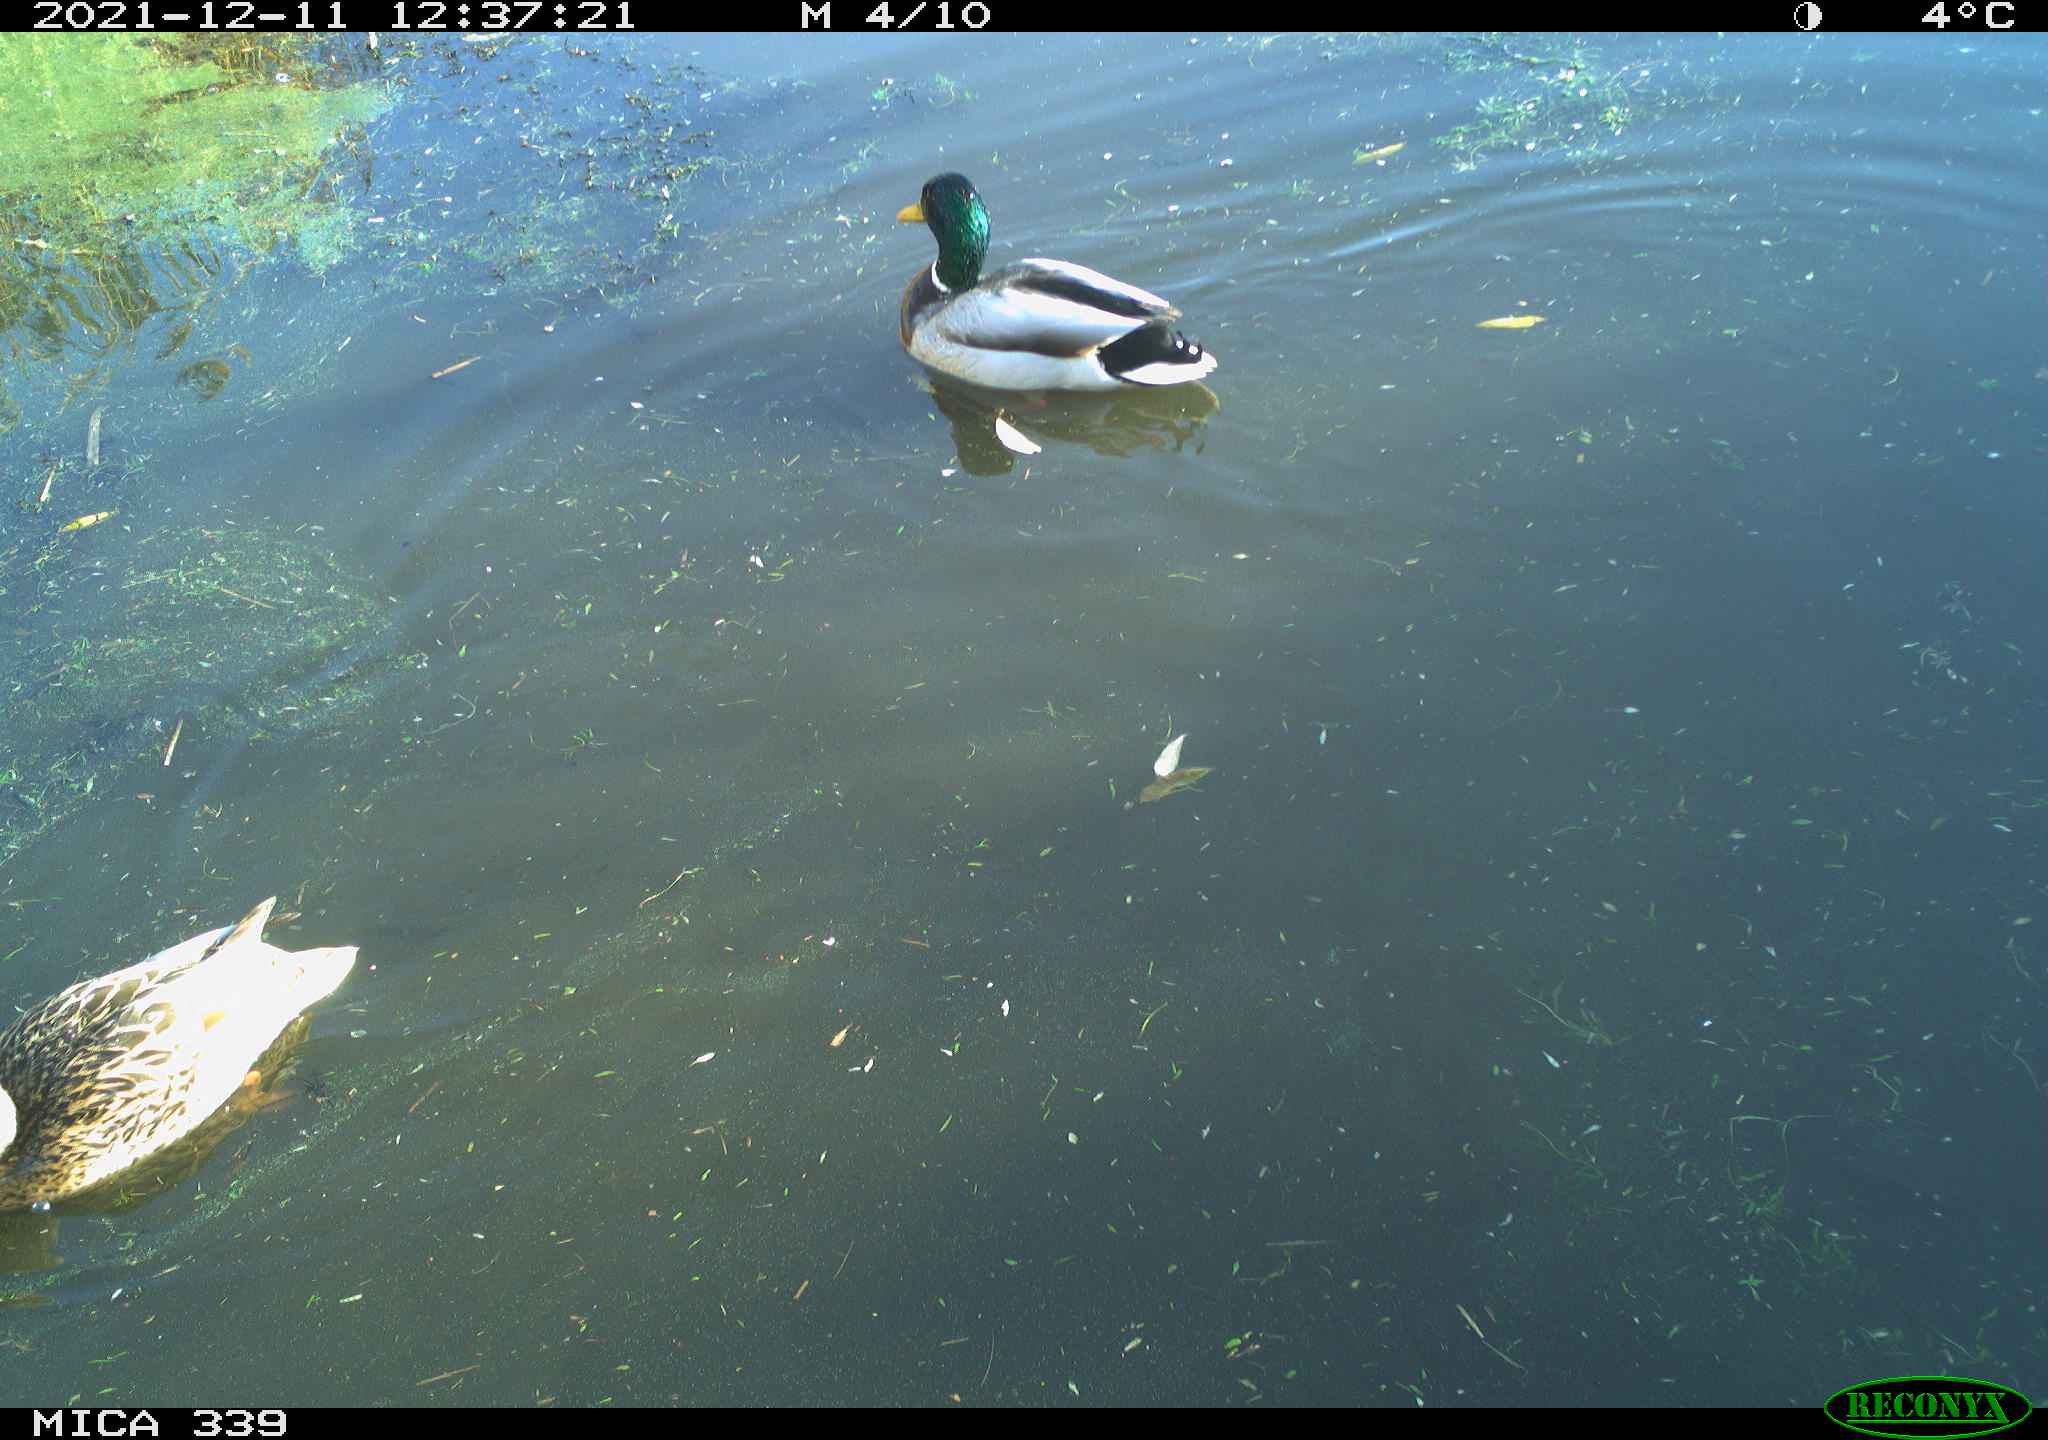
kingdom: Animalia
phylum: Chordata
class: Aves
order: Anseriformes
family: Anatidae
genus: Anas
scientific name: Anas platyrhynchos
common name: Mallard
